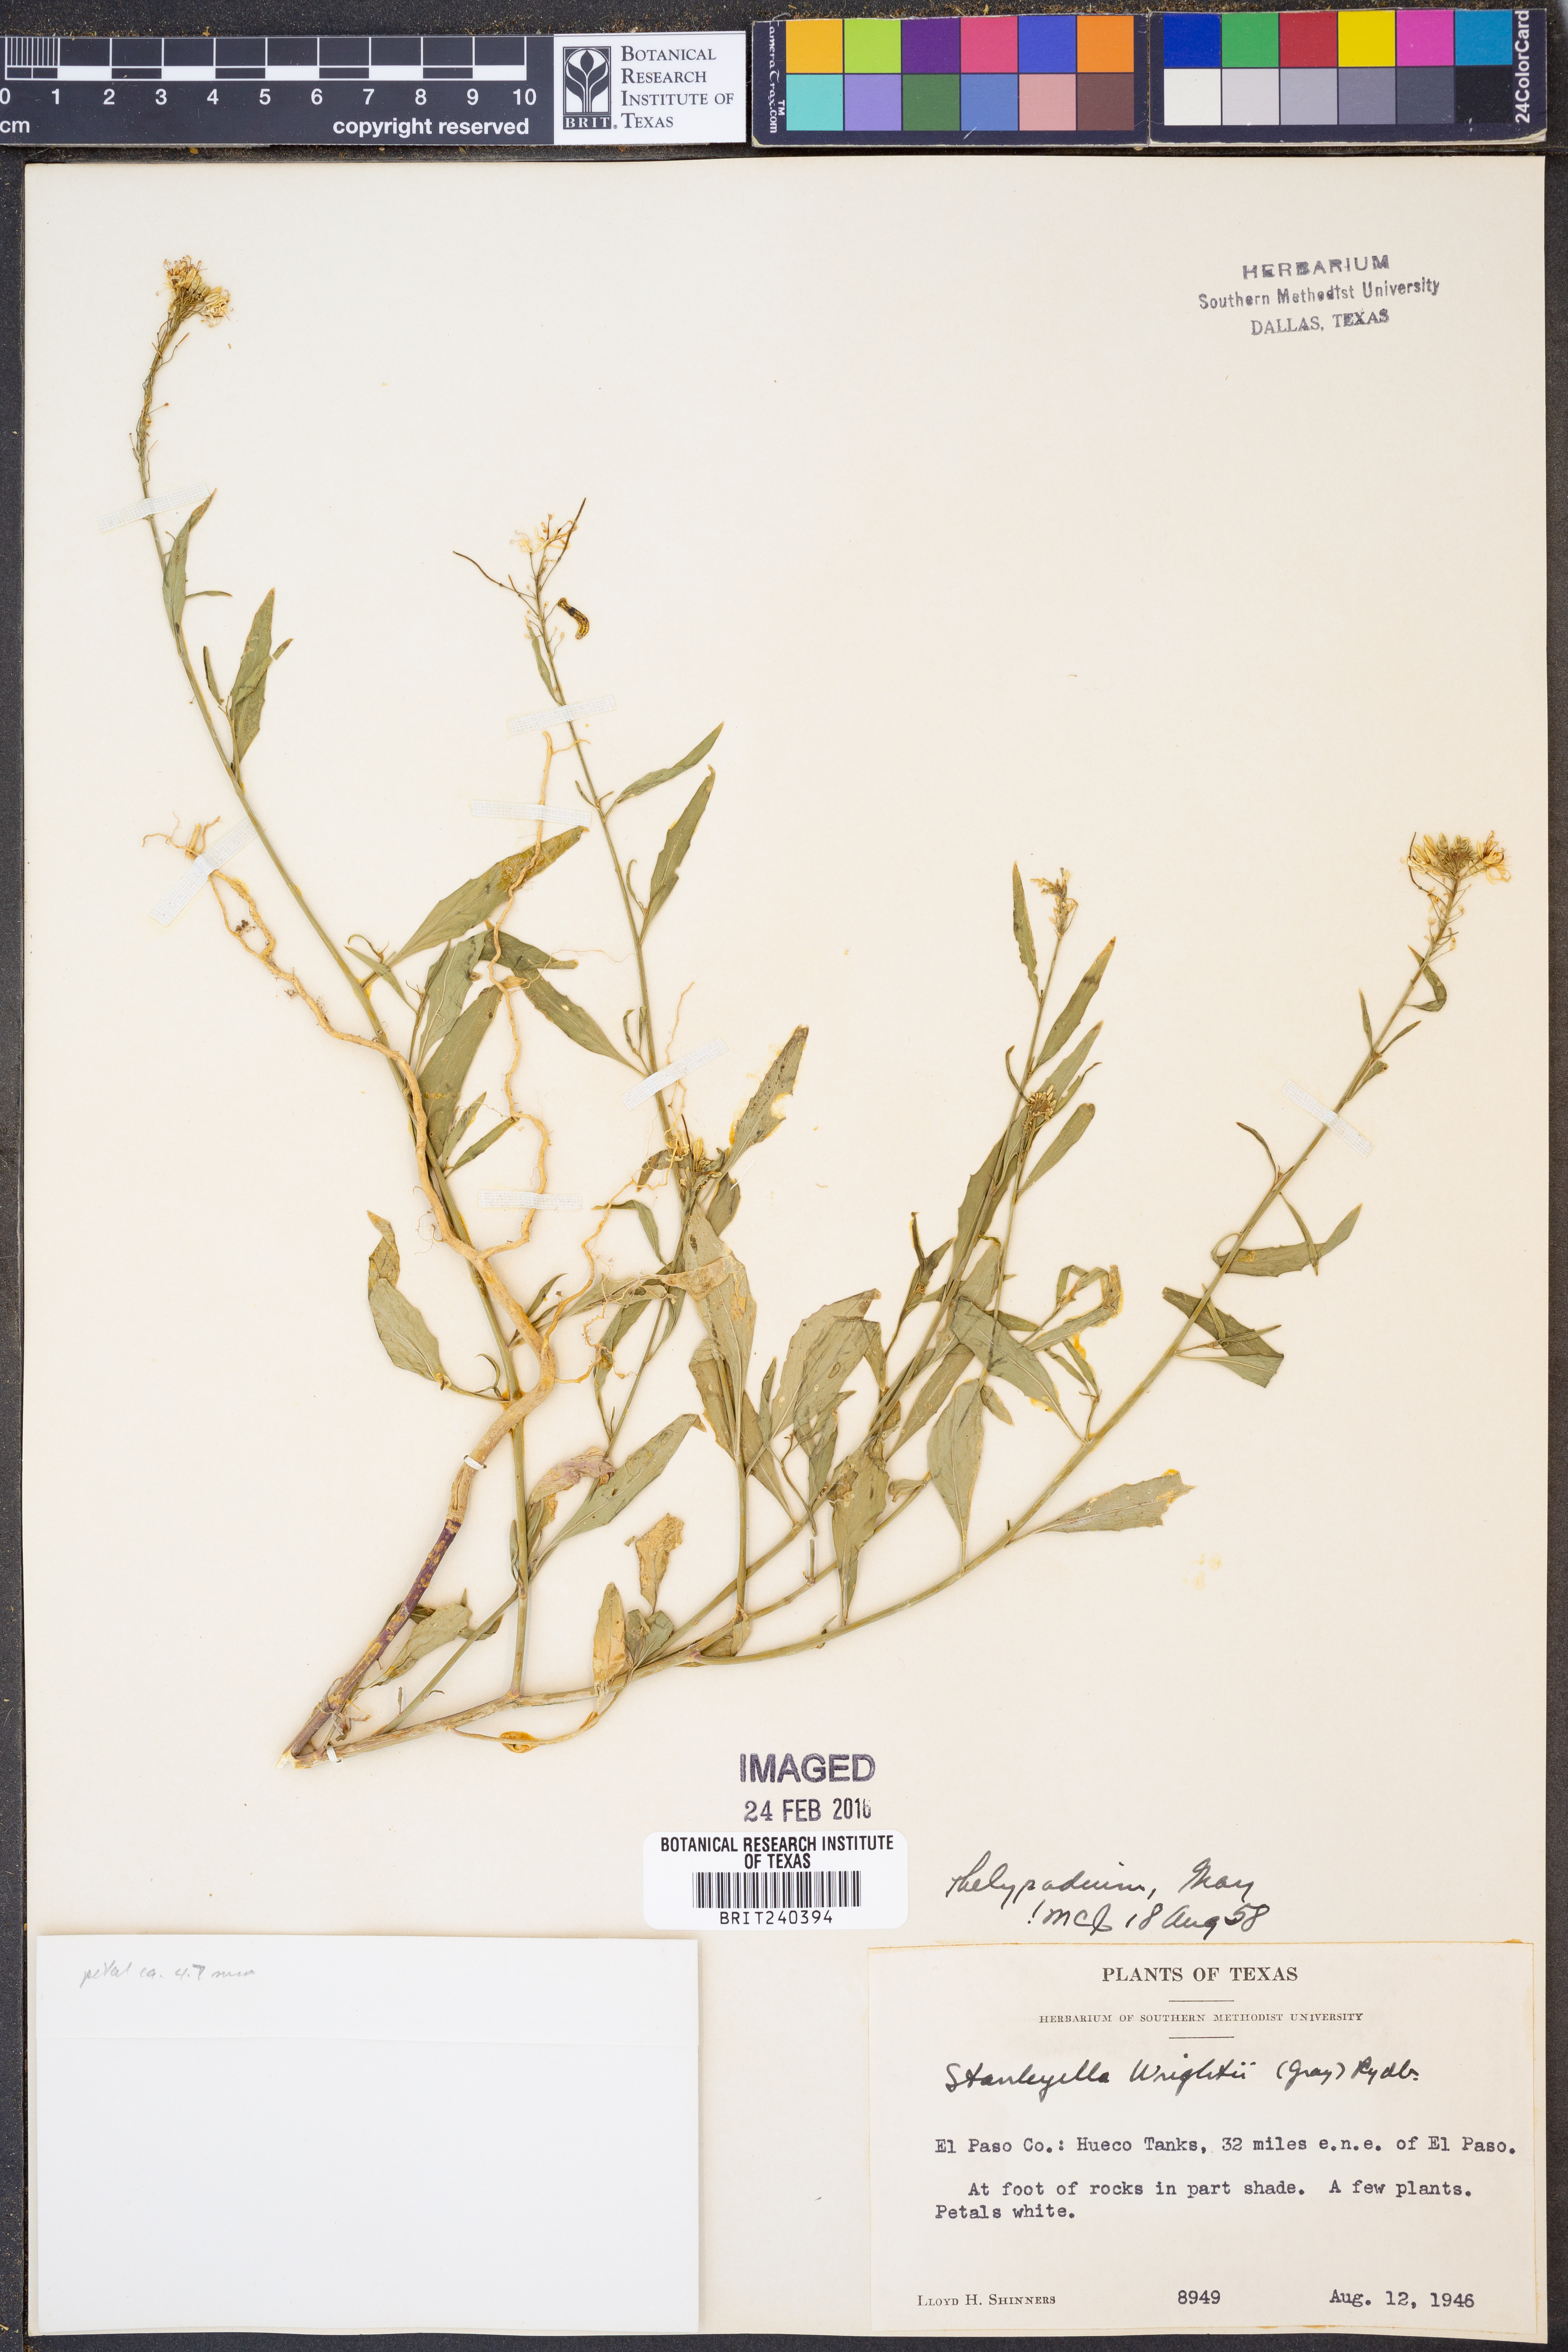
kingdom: Plantae
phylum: Tracheophyta
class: Magnoliopsida
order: Brassicales
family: Brassicaceae
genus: Thelypodium
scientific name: Thelypodium wrightii
